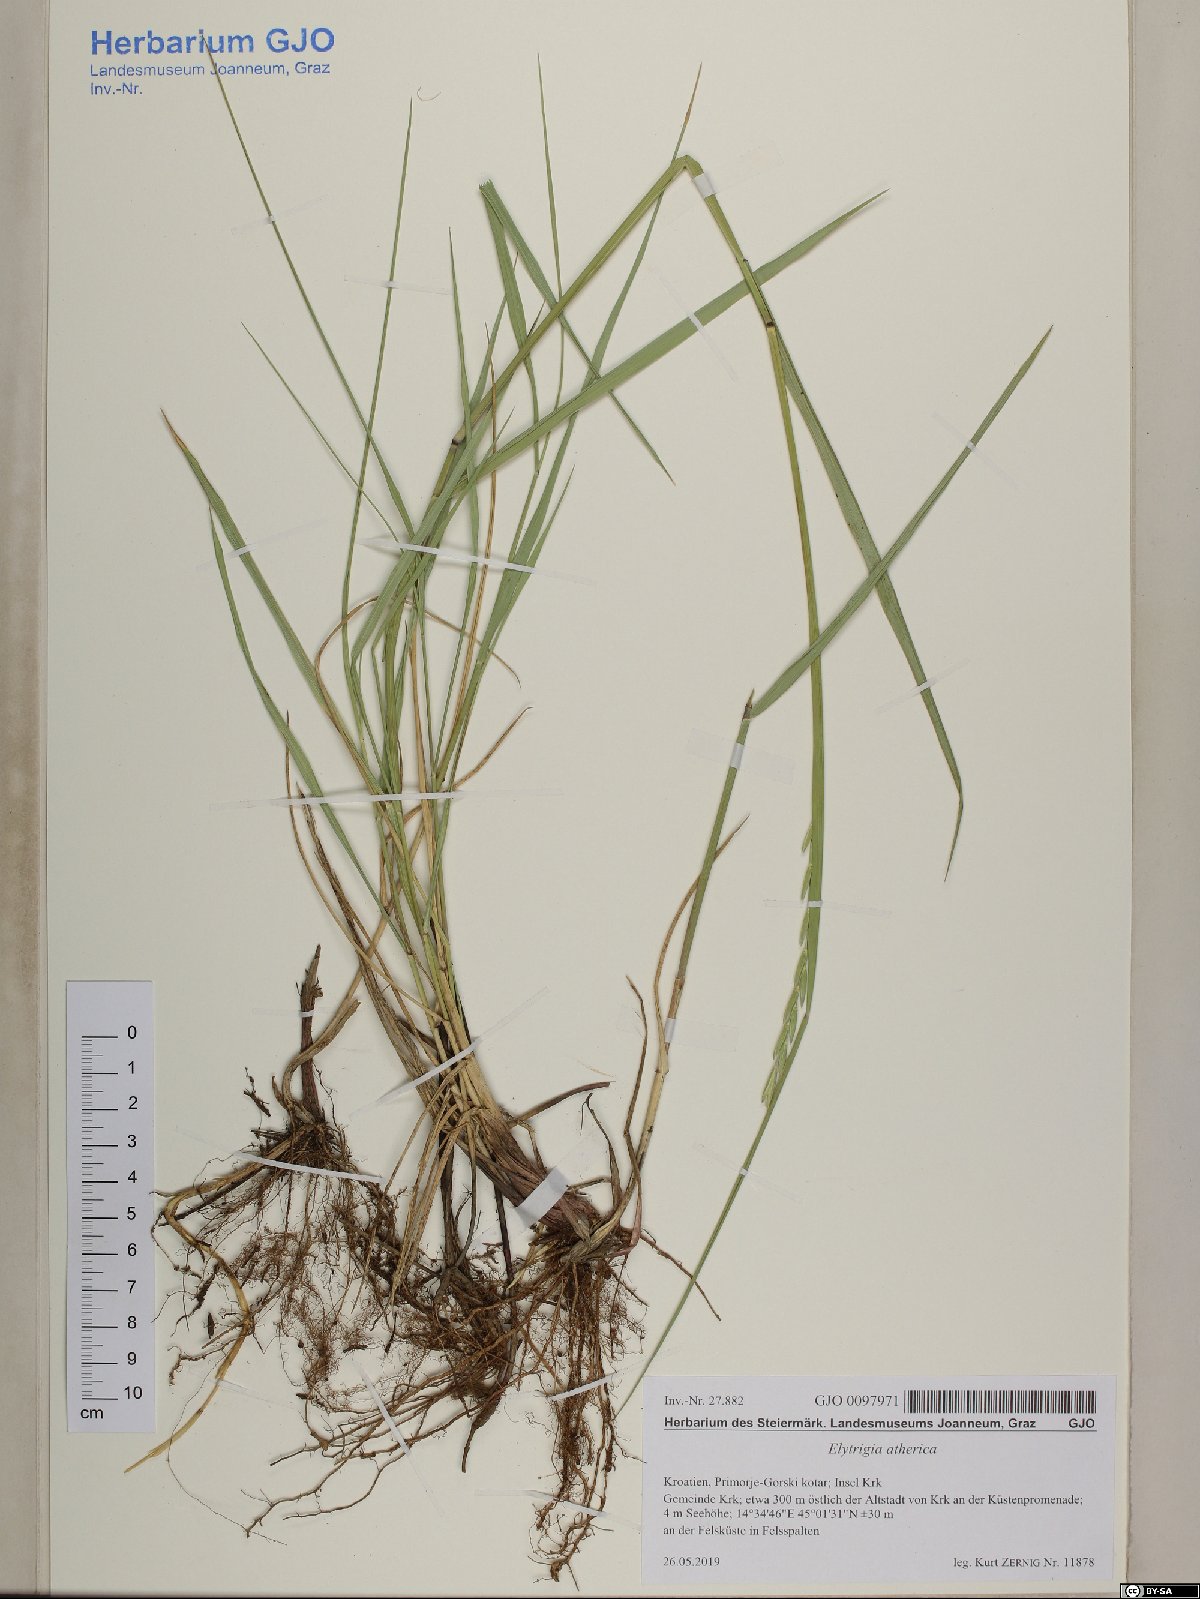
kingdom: Plantae
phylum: Tracheophyta
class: Liliopsida
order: Poales
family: Poaceae
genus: Elymus
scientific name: Elymus athericus
